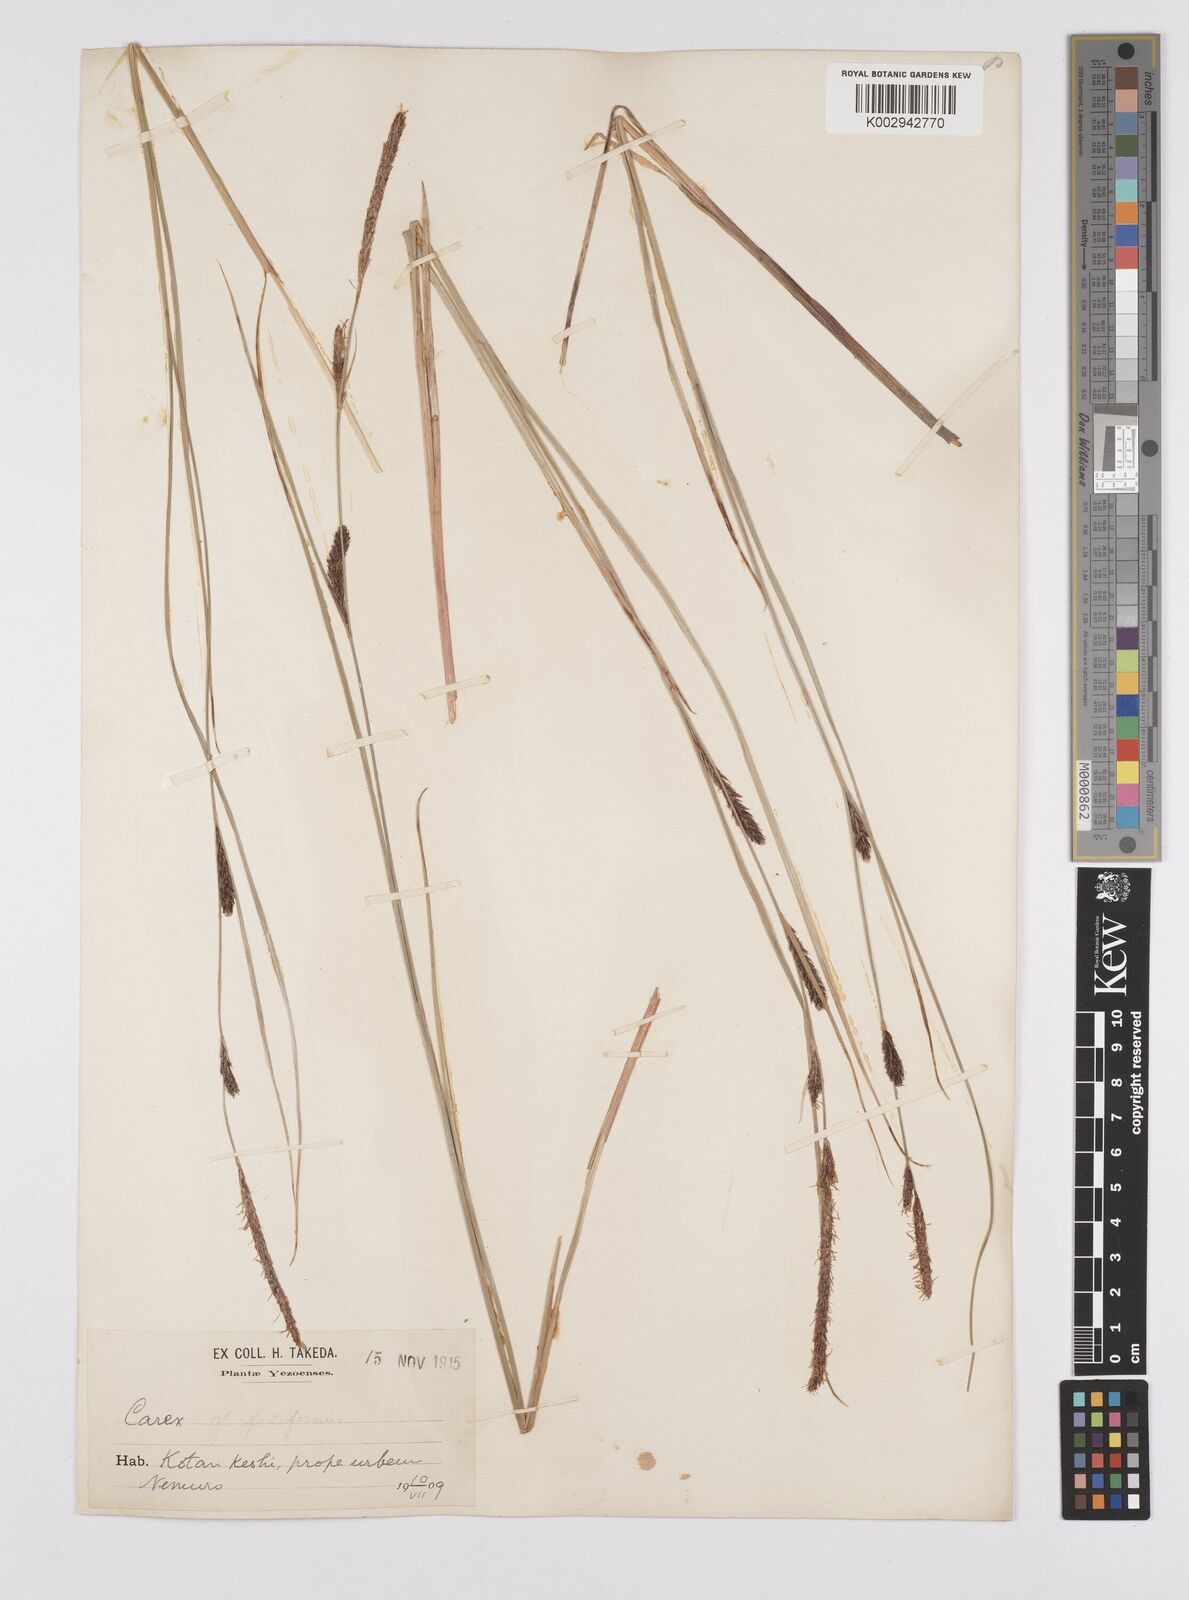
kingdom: Plantae
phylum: Tracheophyta
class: Liliopsida
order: Poales
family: Cyperaceae
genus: Carex
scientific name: Carex lasiocarpa
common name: Slender sedge
